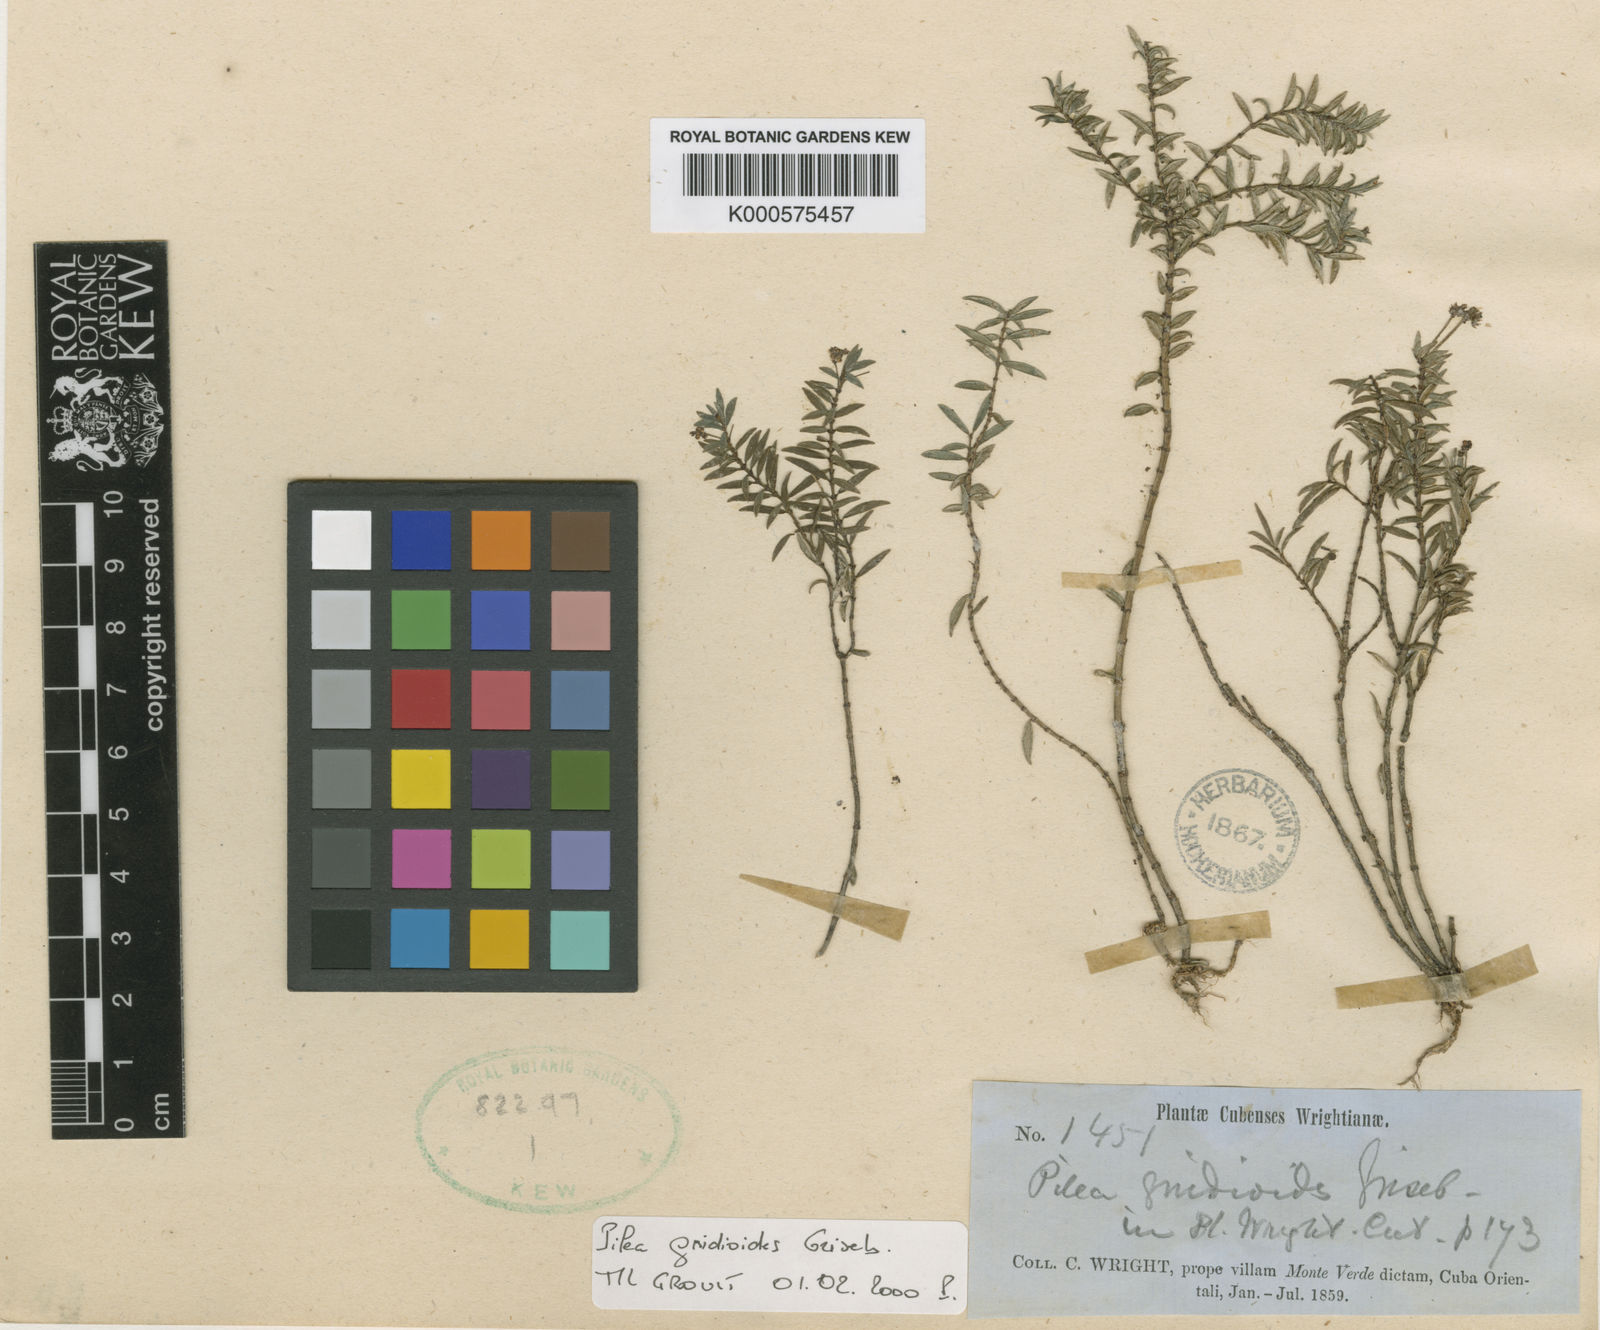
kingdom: Plantae
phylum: Tracheophyta
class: Magnoliopsida
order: Rosales
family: Urticaceae
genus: Pilea
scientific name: Pilea gnidioides
